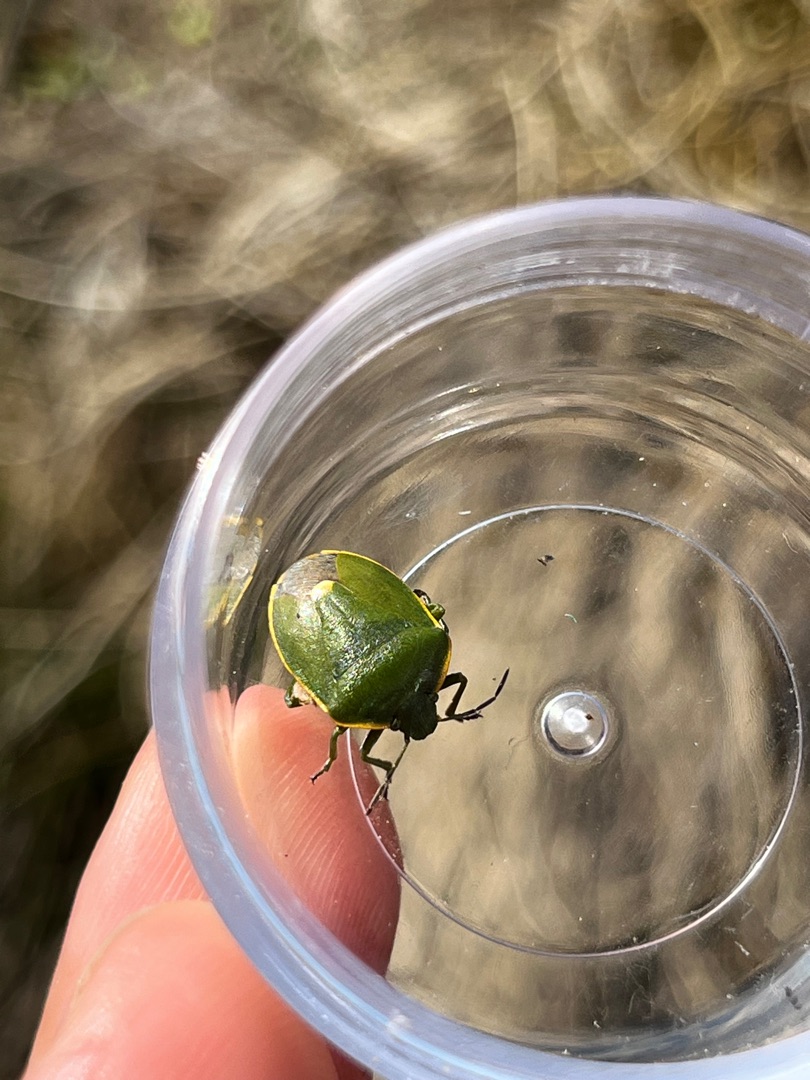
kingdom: Animalia
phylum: Arthropoda
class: Insecta
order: Hemiptera
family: Pentatomidae
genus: Chlorochroa
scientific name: Chlorochroa juniperina
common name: Enebærbredtæge
